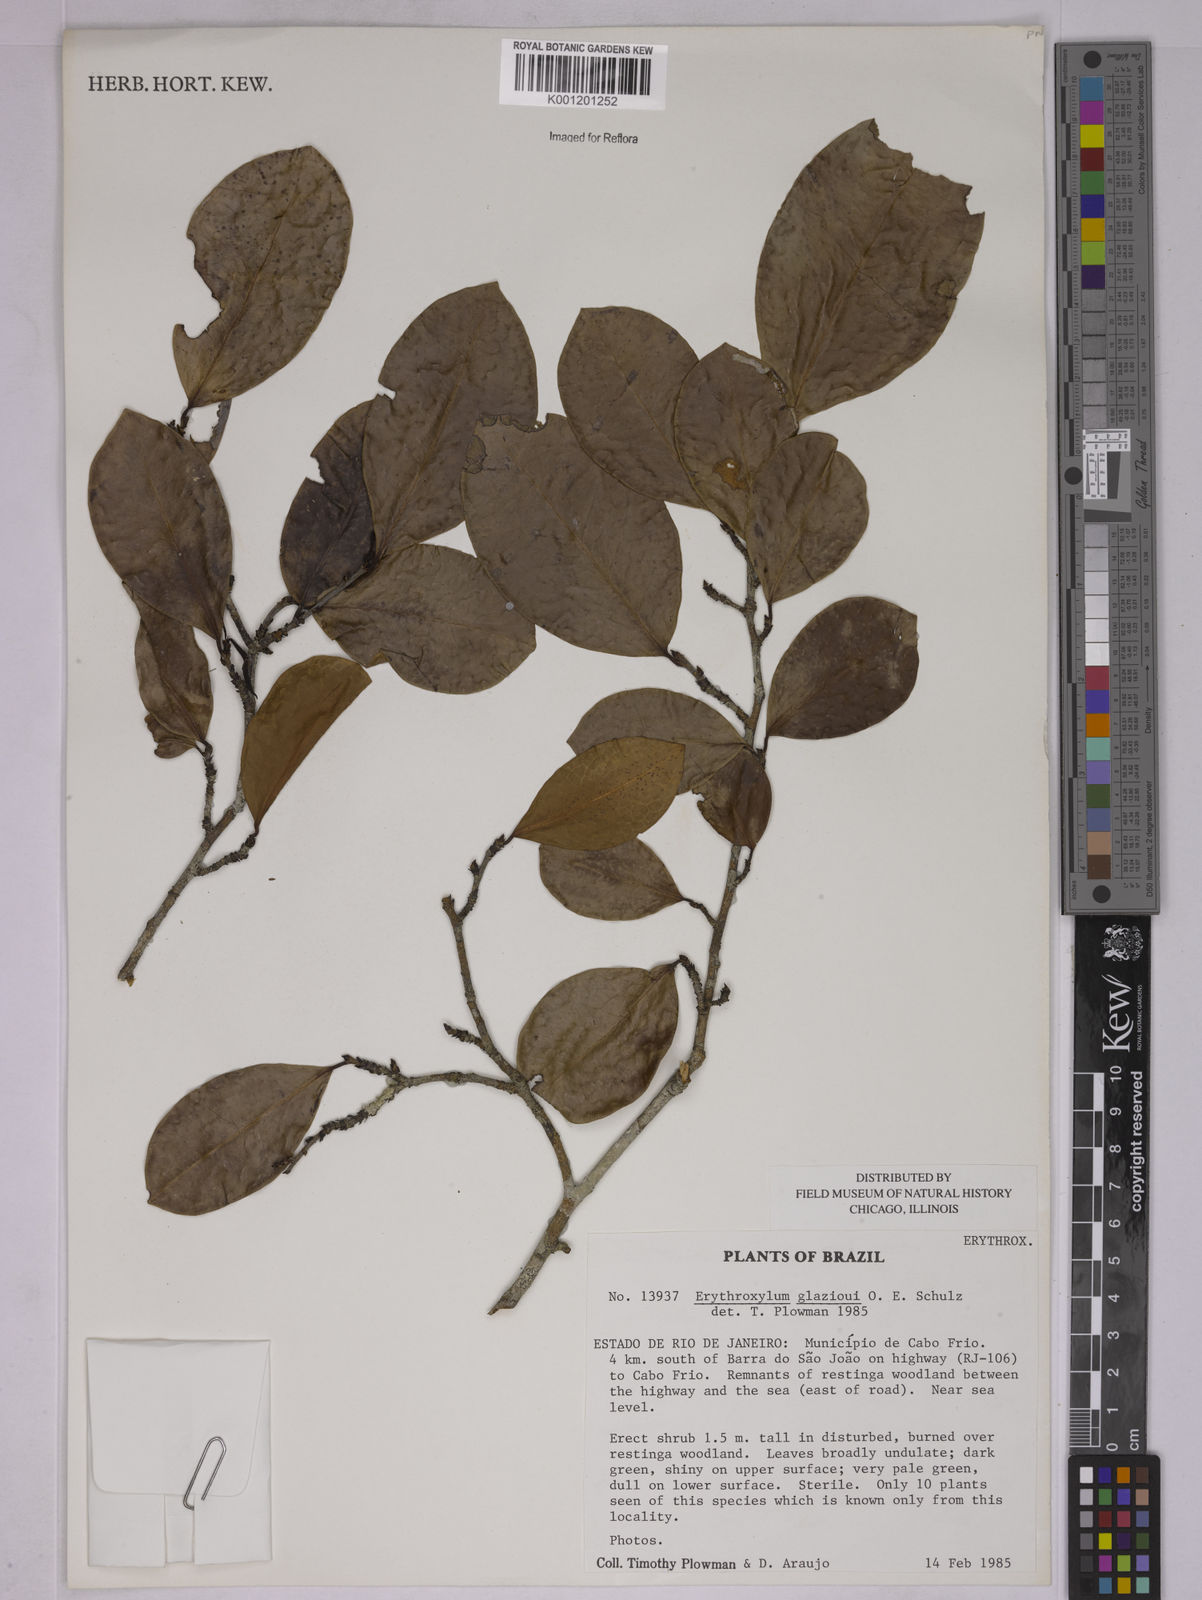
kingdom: Plantae
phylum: Tracheophyta
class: Magnoliopsida
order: Malpighiales
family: Erythroxylaceae
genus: Erythroxylum
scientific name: Erythroxylum
